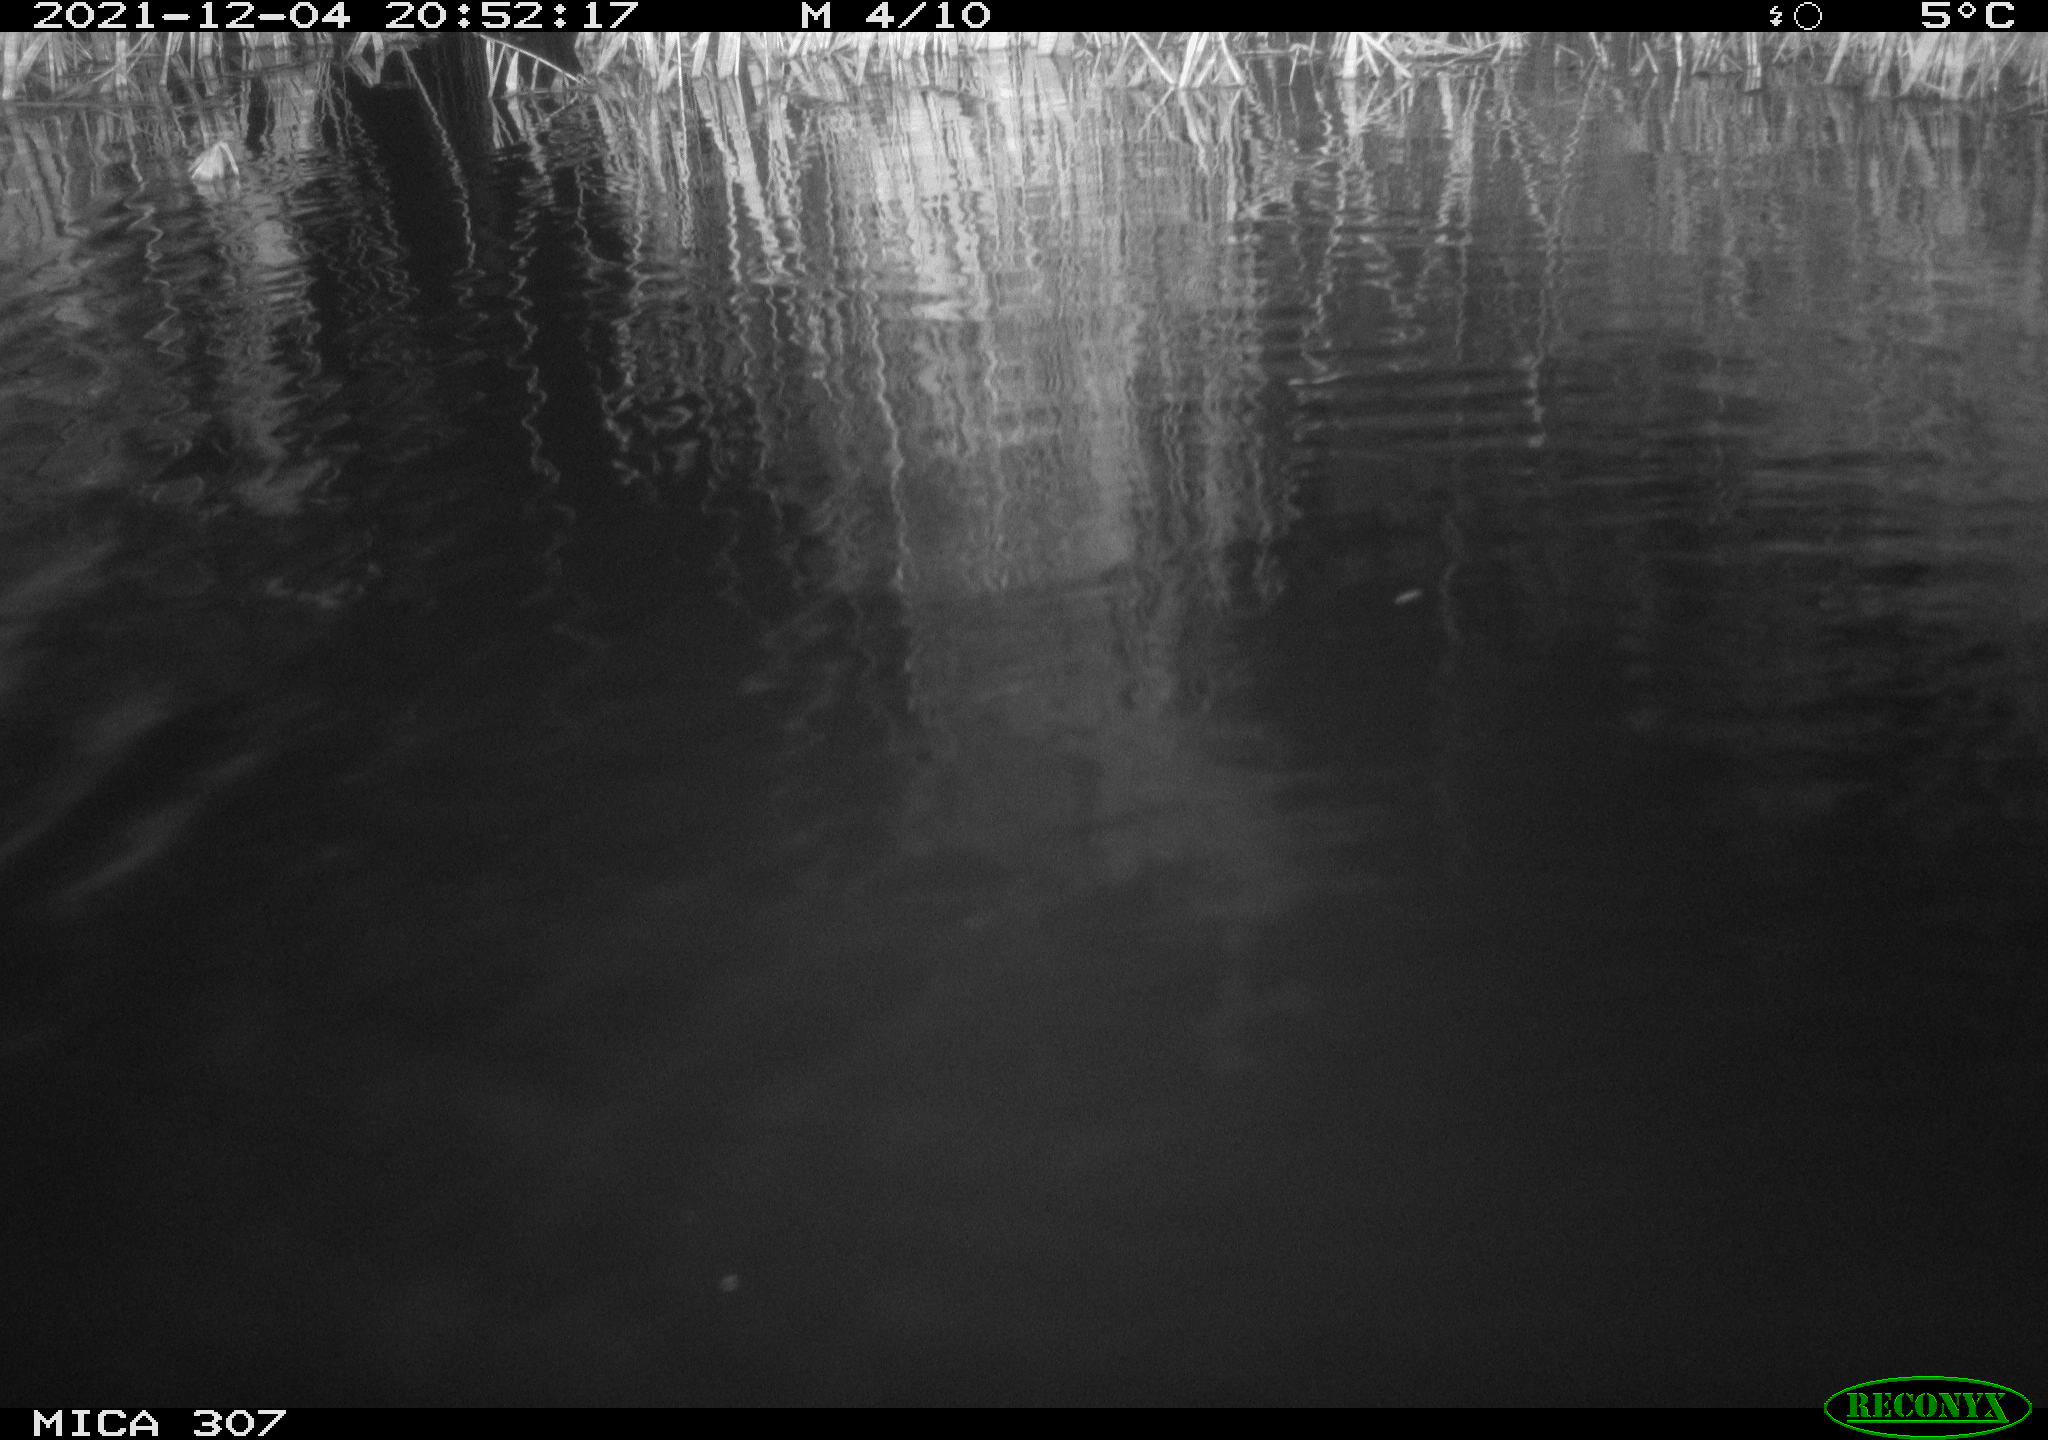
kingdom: Animalia
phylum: Chordata
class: Mammalia
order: Rodentia
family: Muridae
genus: Rattus
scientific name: Rattus norvegicus
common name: Brown rat
